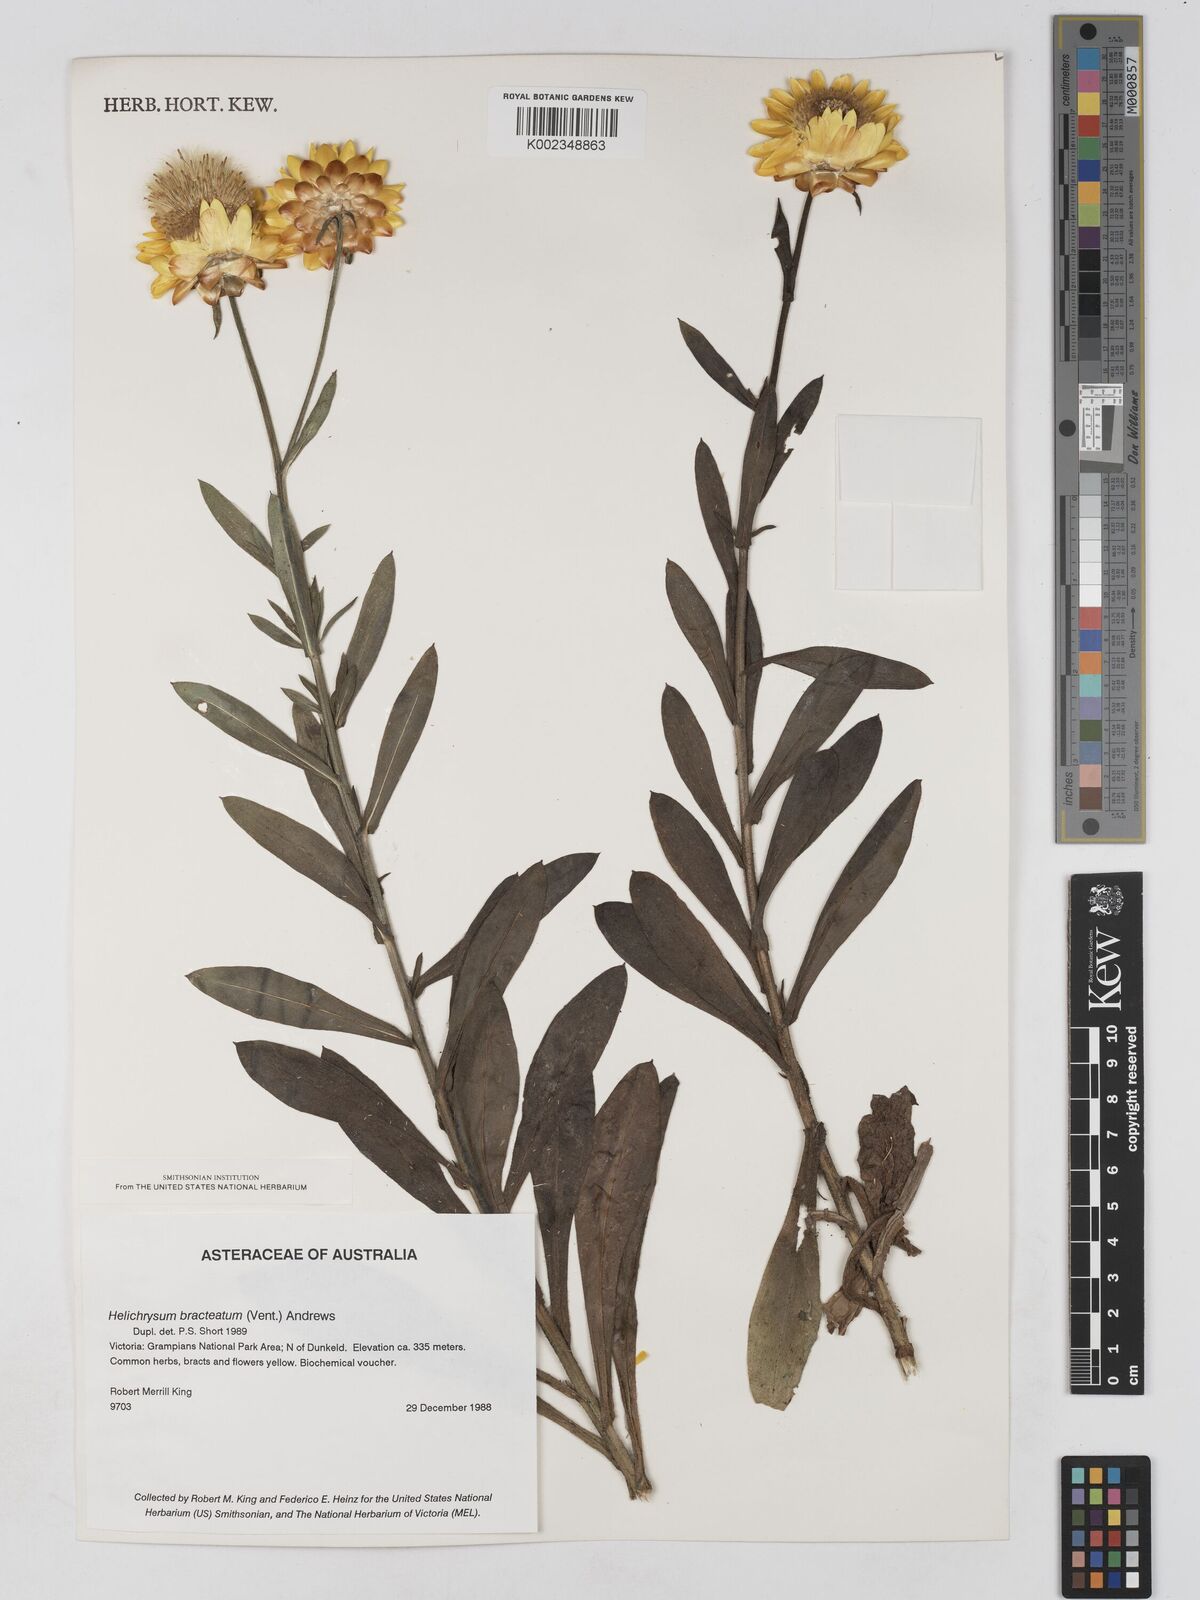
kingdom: Plantae
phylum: Tracheophyta
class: Magnoliopsida
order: Asterales
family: Asteraceae
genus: Xerochrysum
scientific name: Xerochrysum bracteatum
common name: Bracted strawflower
